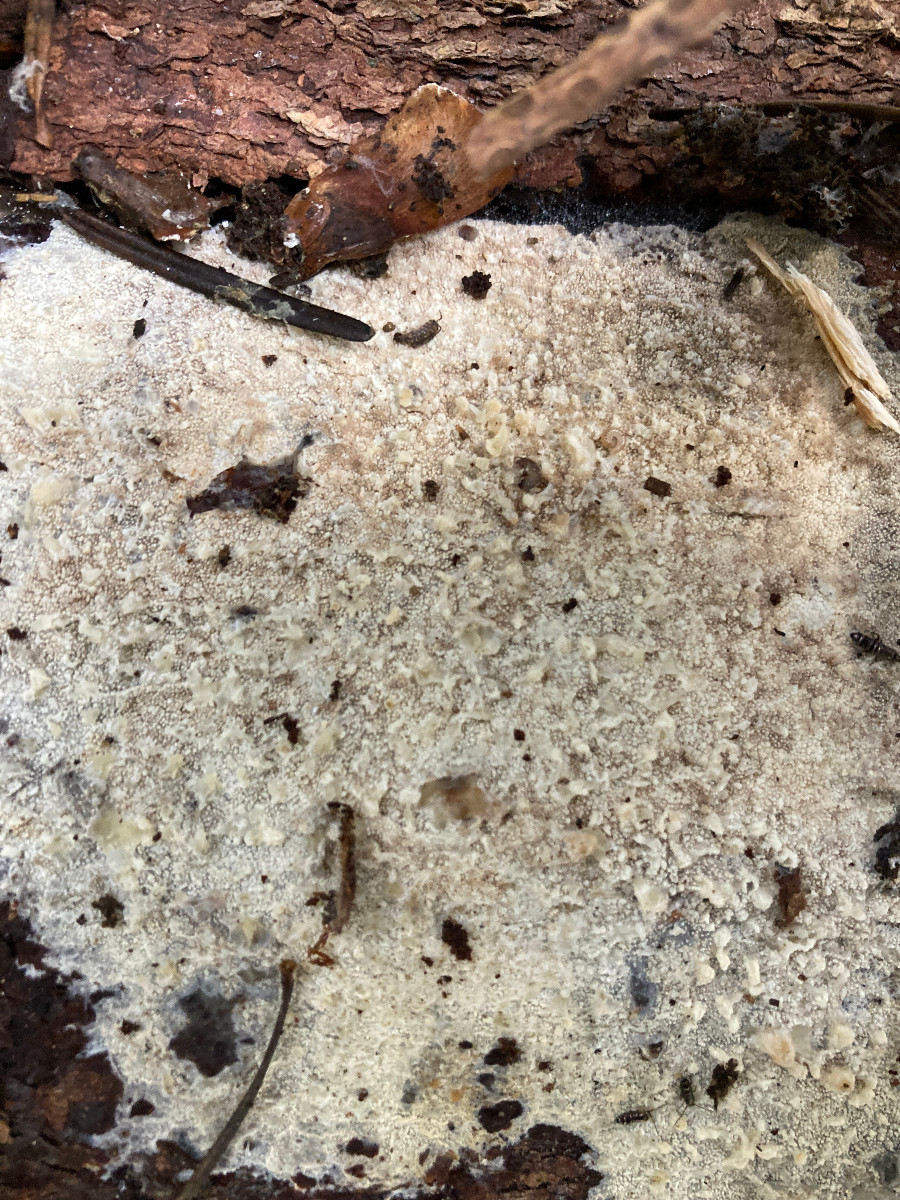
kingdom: Fungi
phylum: Basidiomycota
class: Agaricomycetes
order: Hymenochaetales
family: Schizoporaceae
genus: Xylodon
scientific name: Xylodon
